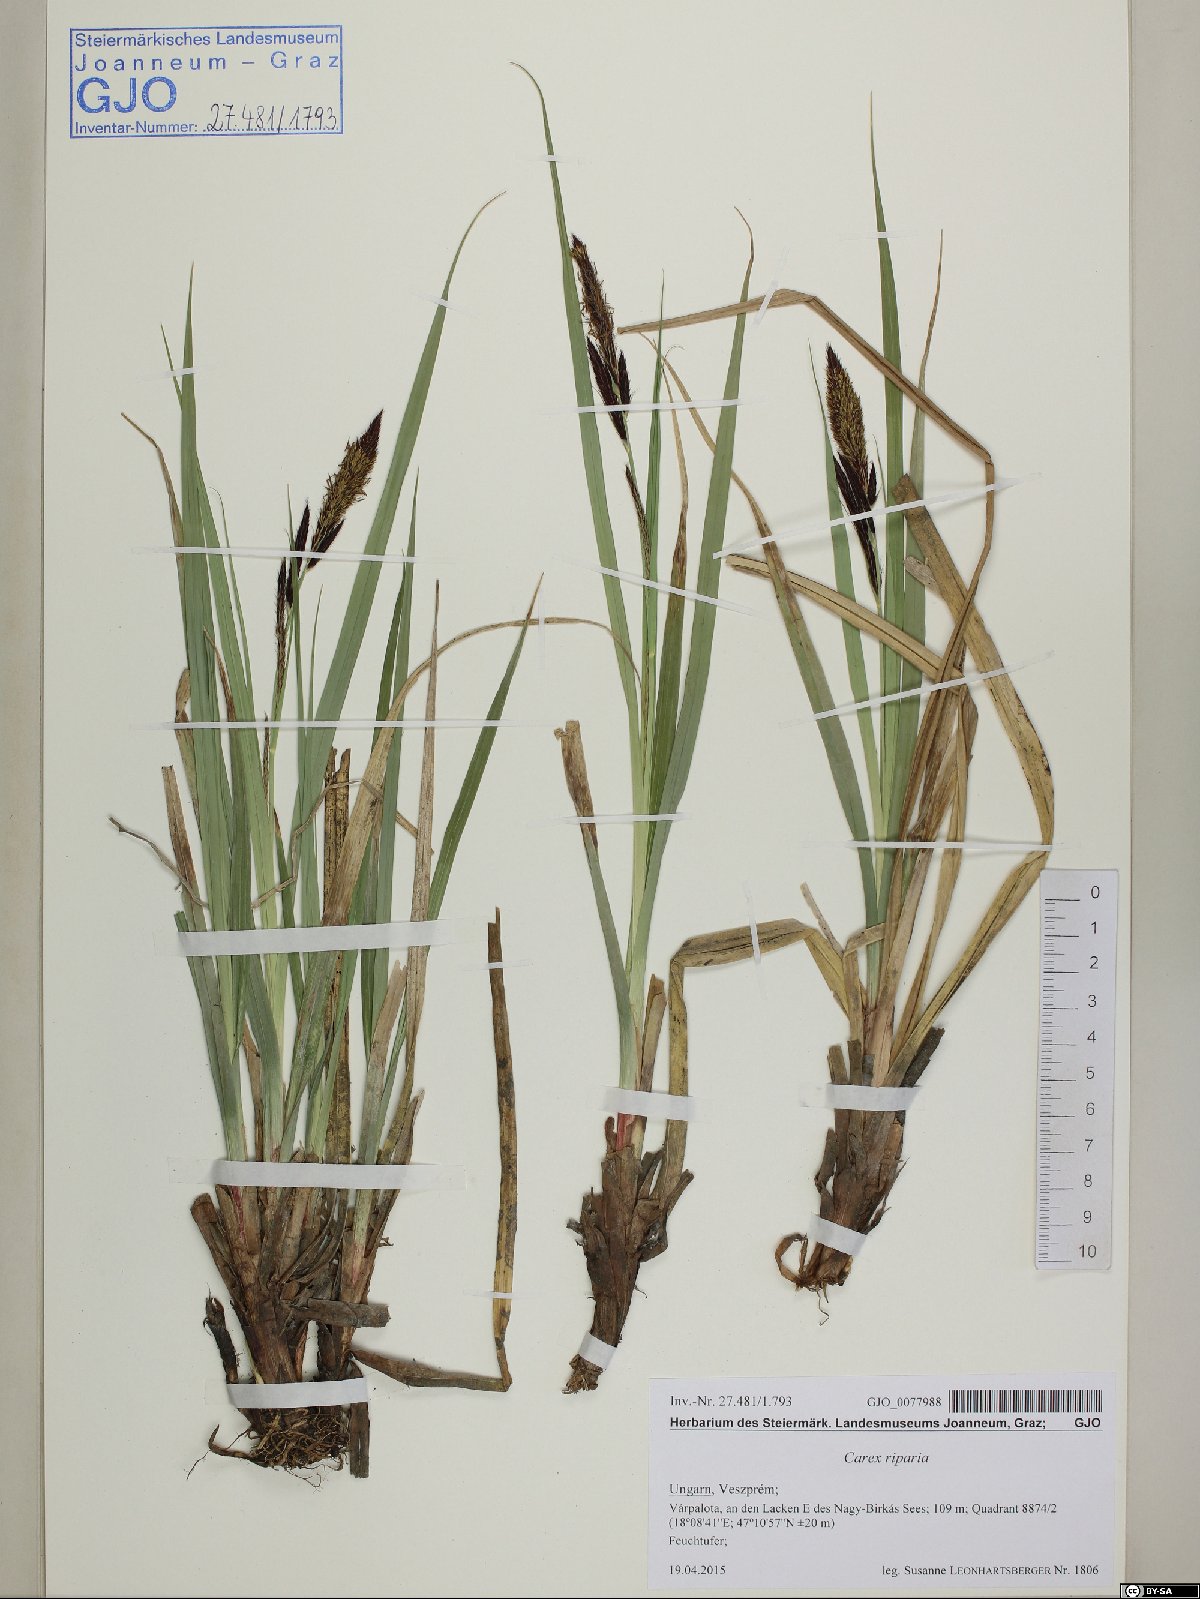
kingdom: Plantae
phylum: Tracheophyta
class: Liliopsida
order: Poales
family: Cyperaceae
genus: Carex
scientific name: Carex riparia
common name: Greater pond-sedge
